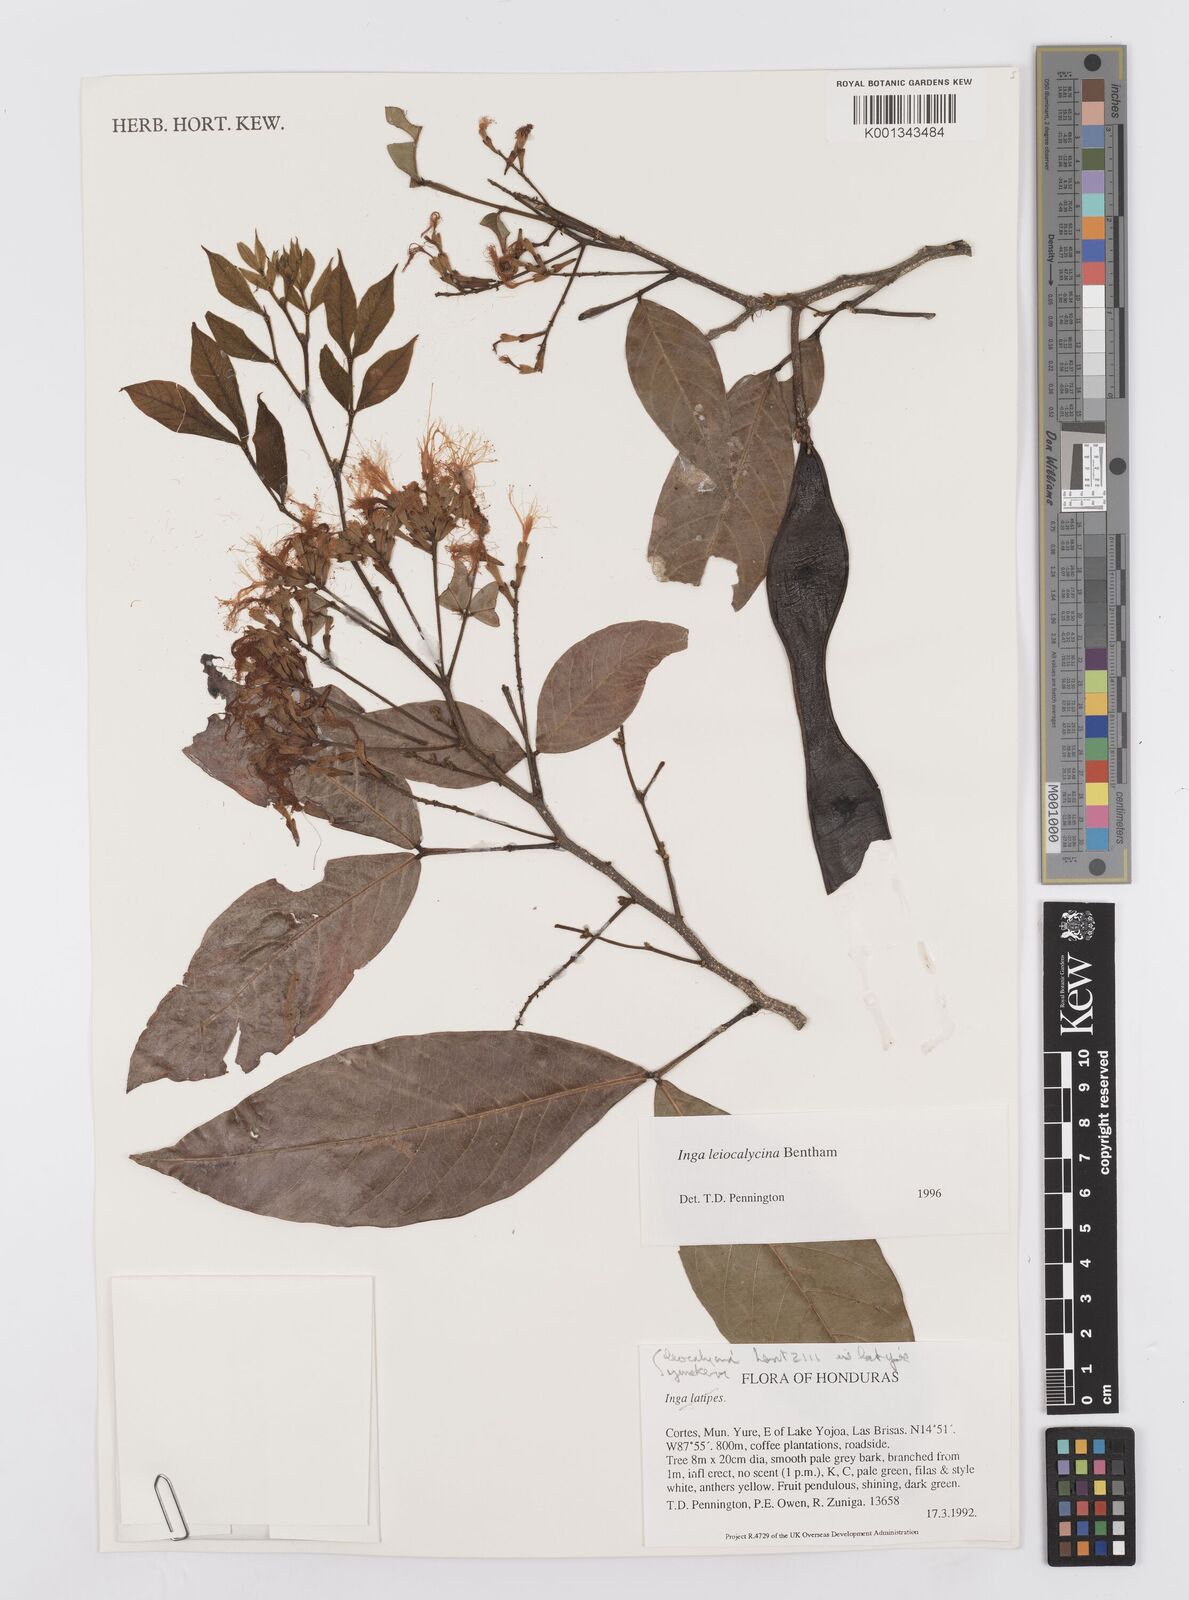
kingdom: Plantae
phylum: Tracheophyta
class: Magnoliopsida
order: Fabales
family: Fabaceae
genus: Inga
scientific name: Inga laevigata
